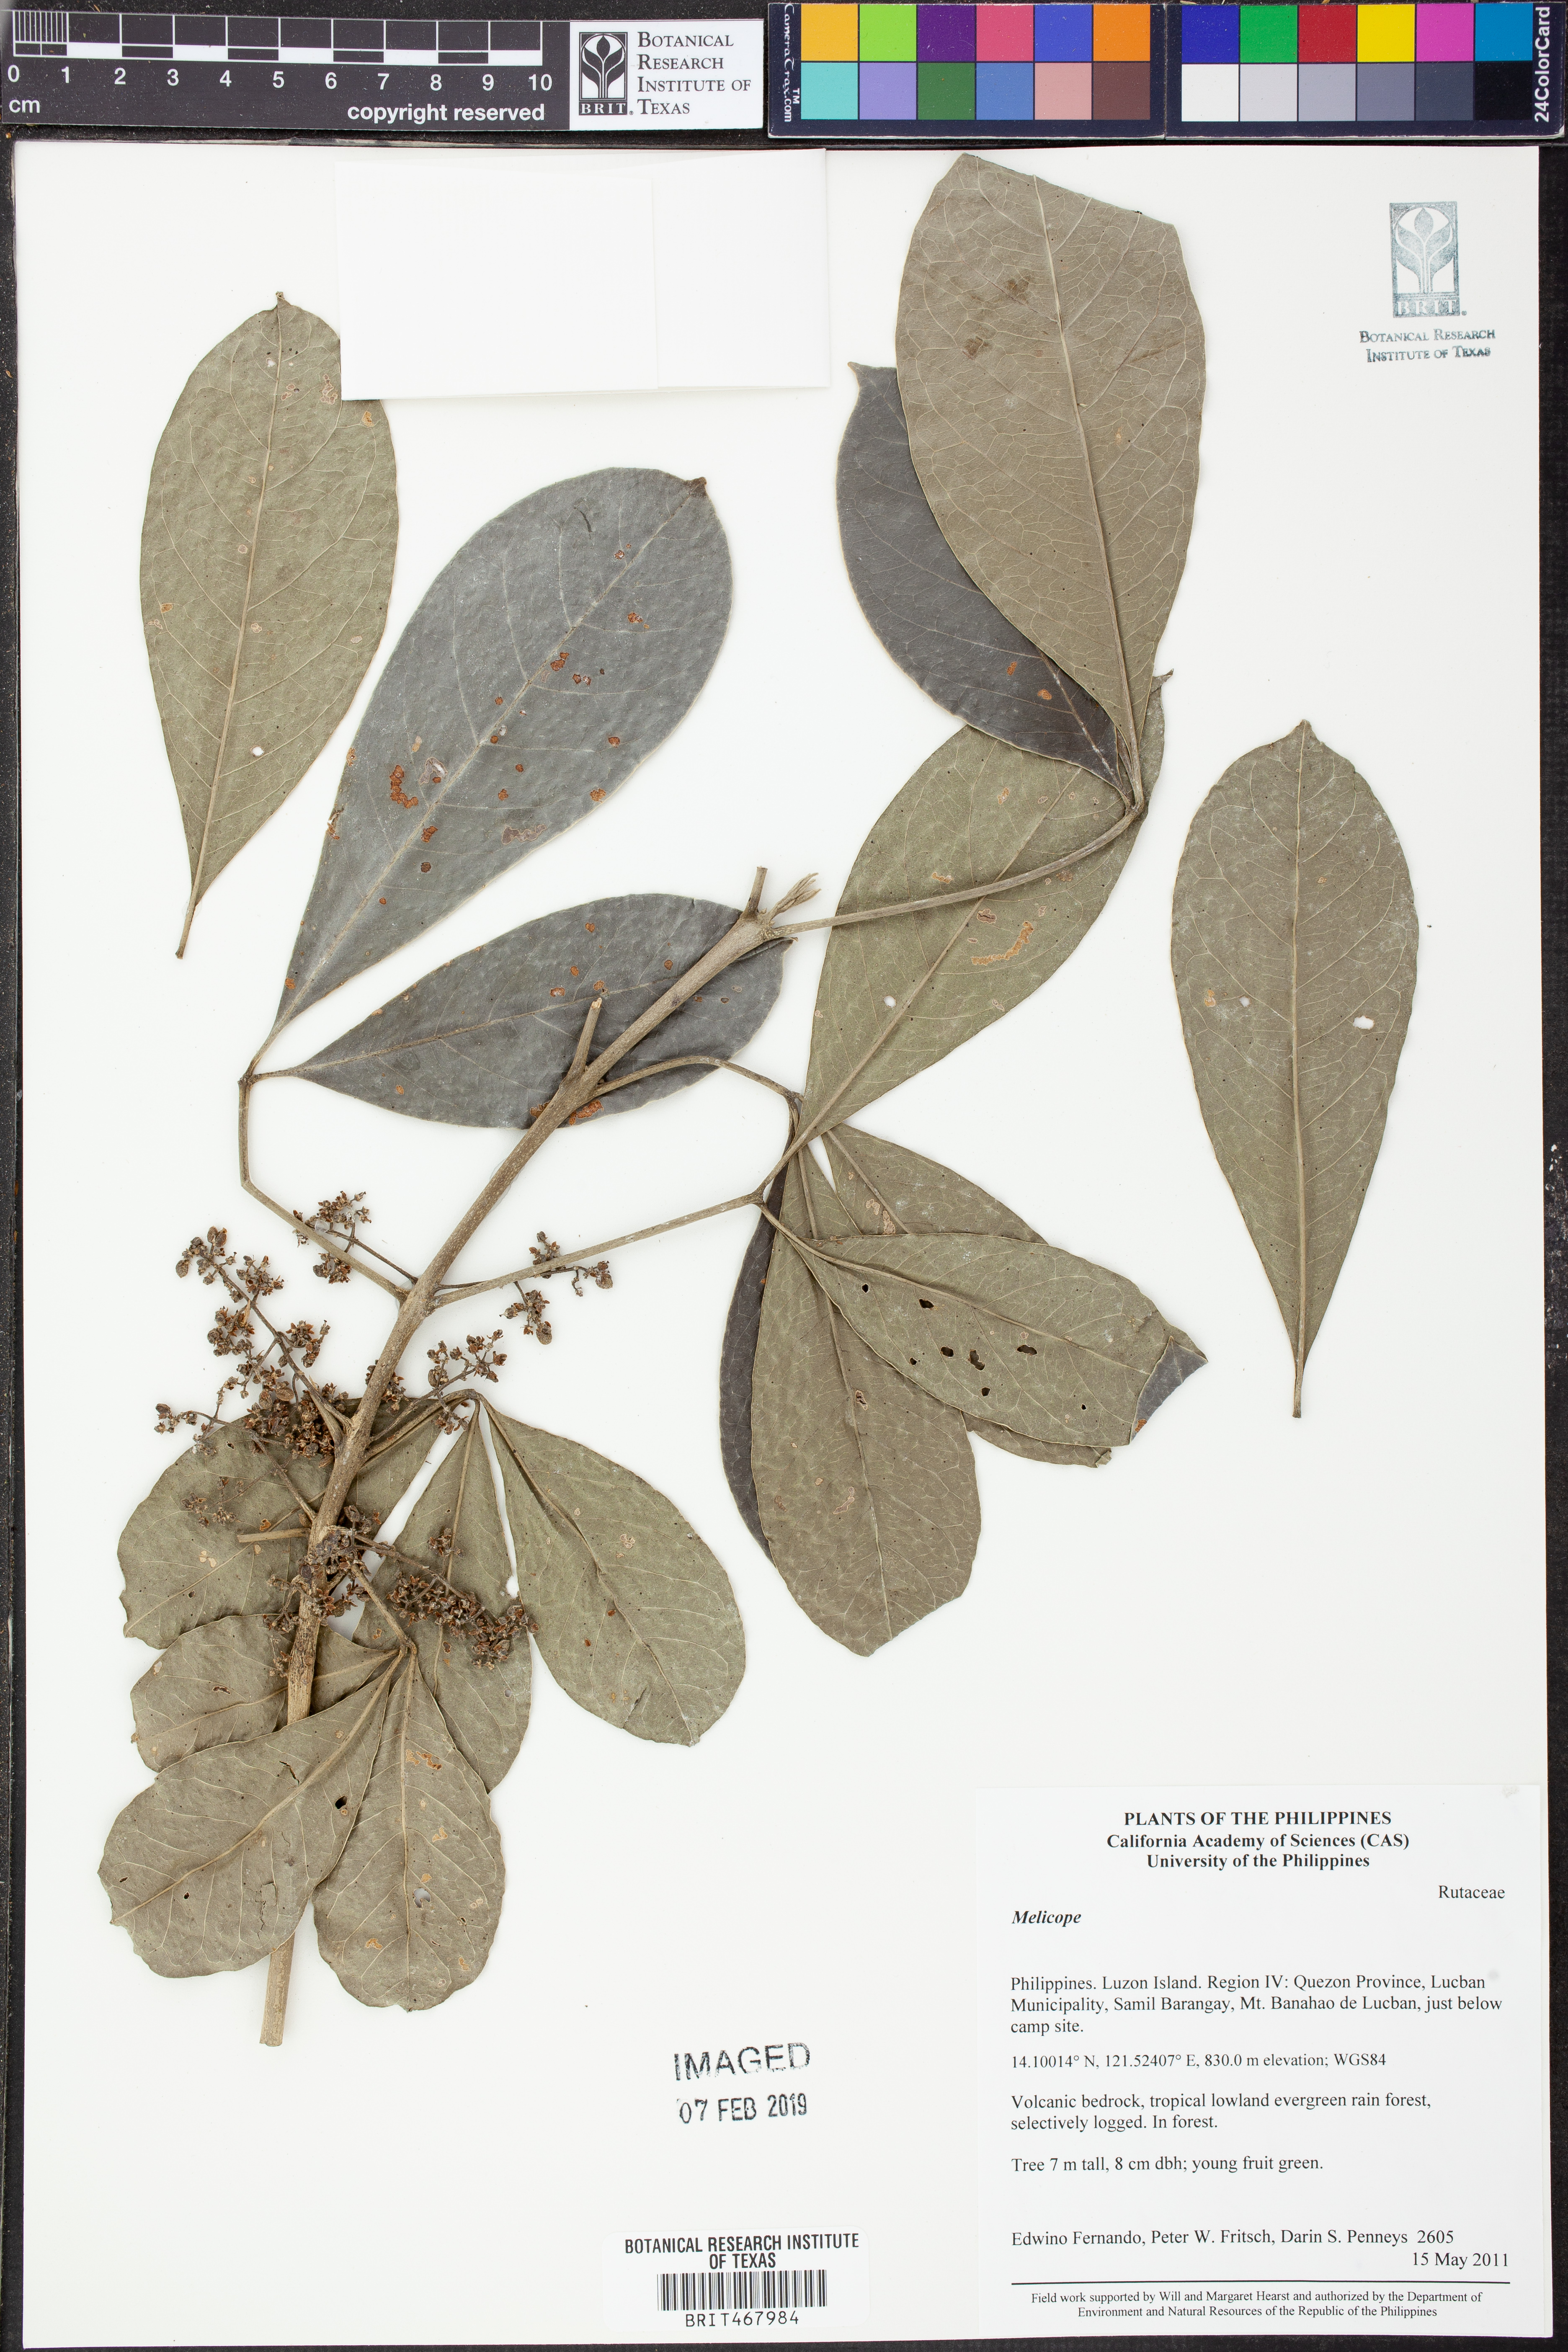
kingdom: Plantae
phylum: Tracheophyta
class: Magnoliopsida
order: Sapindales
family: Rutaceae
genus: Melicope
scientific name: Melicope
